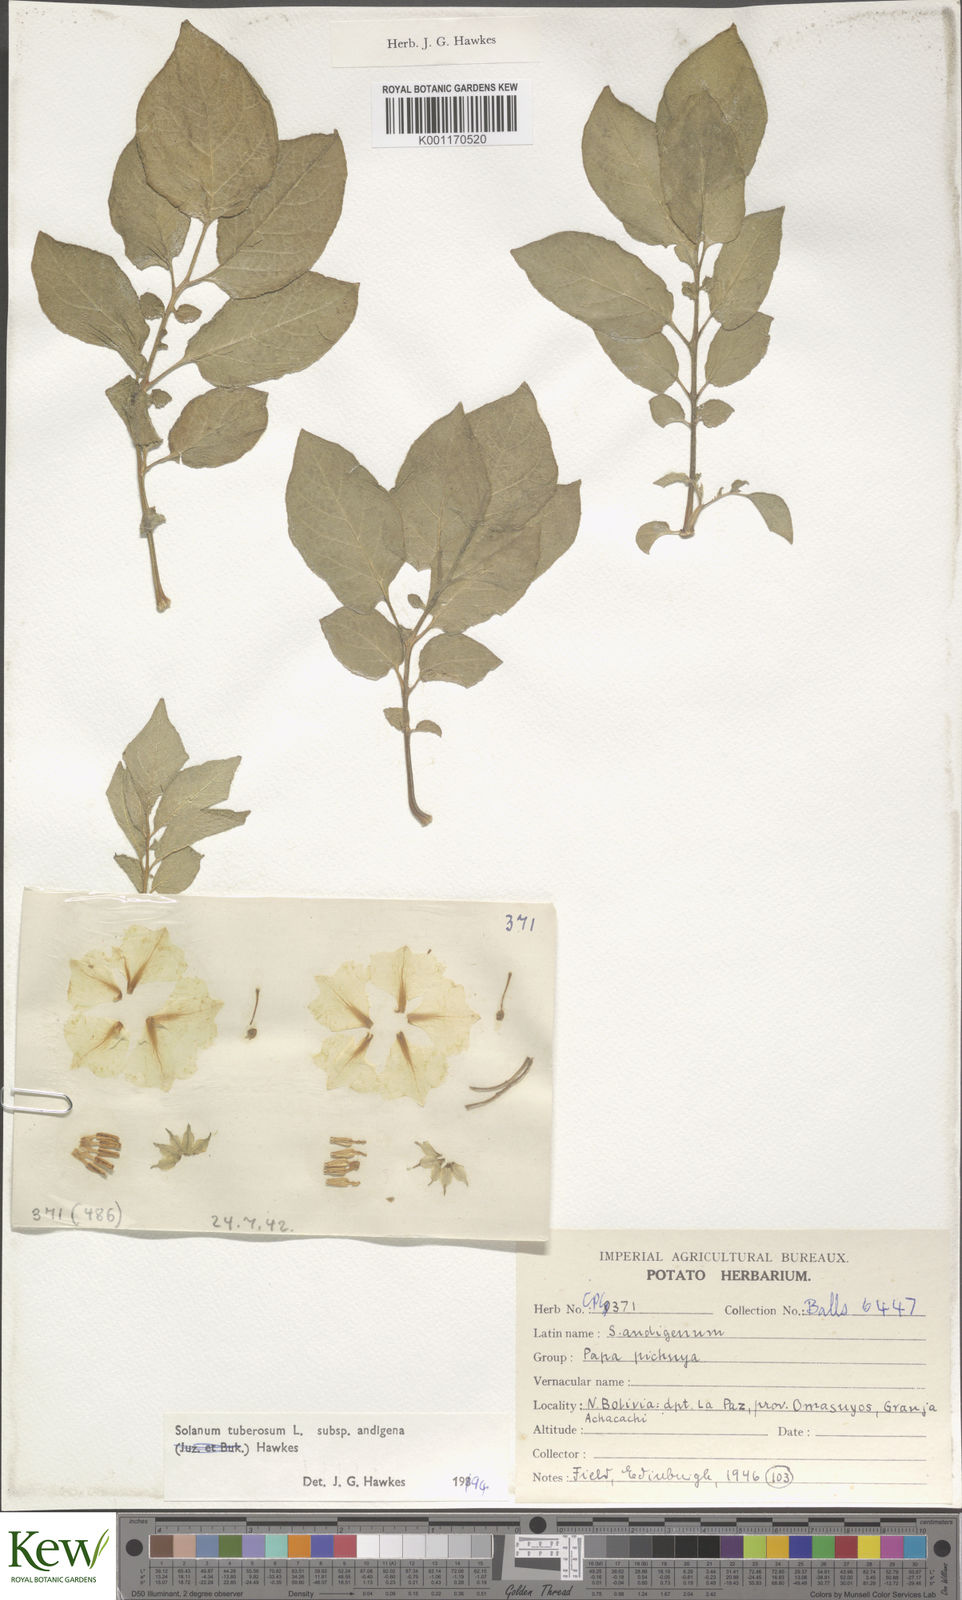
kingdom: Plantae
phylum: Tracheophyta
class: Magnoliopsida
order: Solanales
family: Solanaceae
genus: Solanum
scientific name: Solanum tuberosum
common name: Potato
